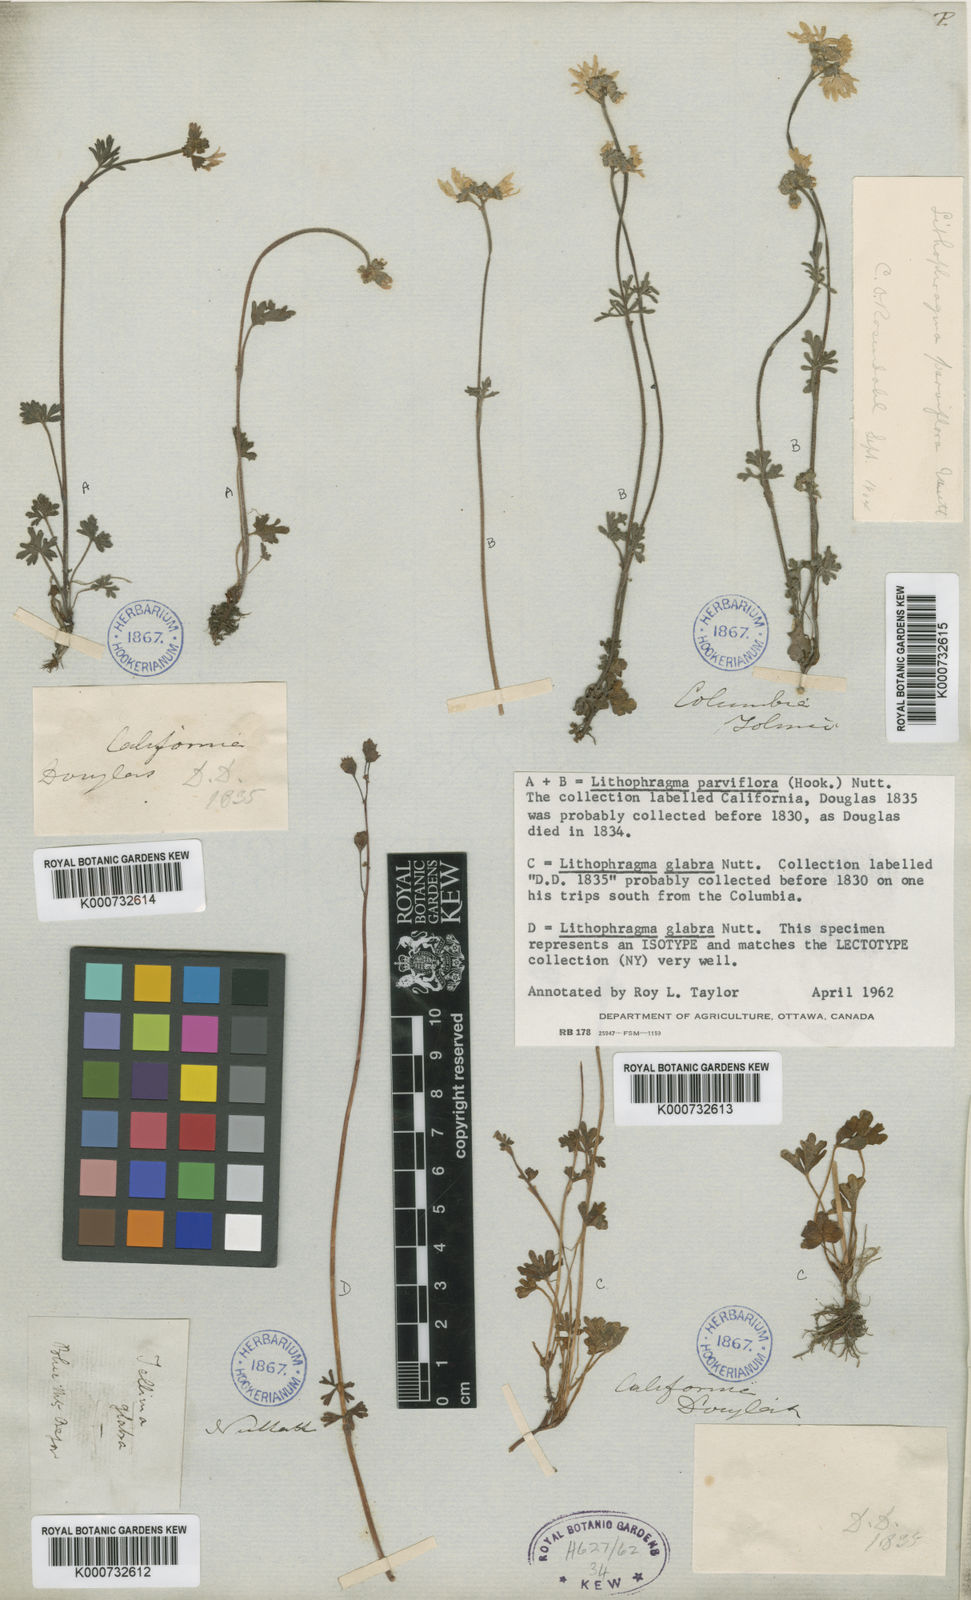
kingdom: Plantae
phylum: Tracheophyta
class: Magnoliopsida
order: Saxifragales
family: Saxifragaceae
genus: Lithophragma
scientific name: Lithophragma tenella
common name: Slender fringe-cup
